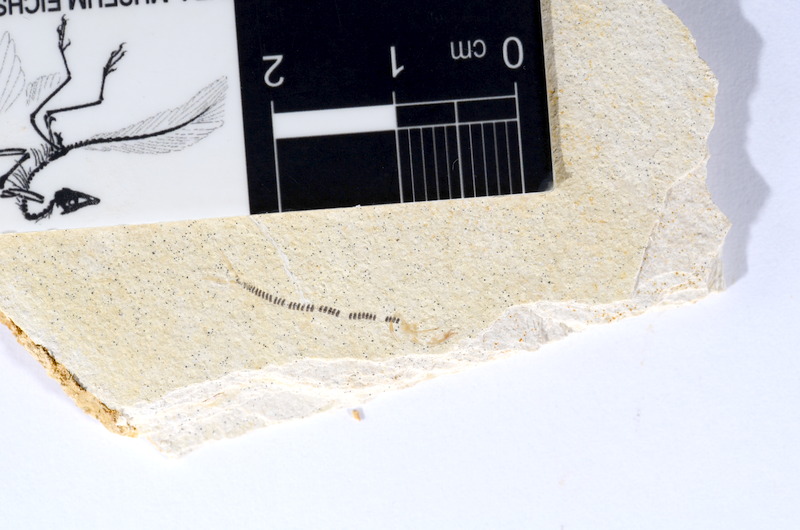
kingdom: Animalia
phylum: Chordata
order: Salmoniformes
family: Orthogonikleithridae
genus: Orthogonikleithrus
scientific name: Orthogonikleithrus hoelli
